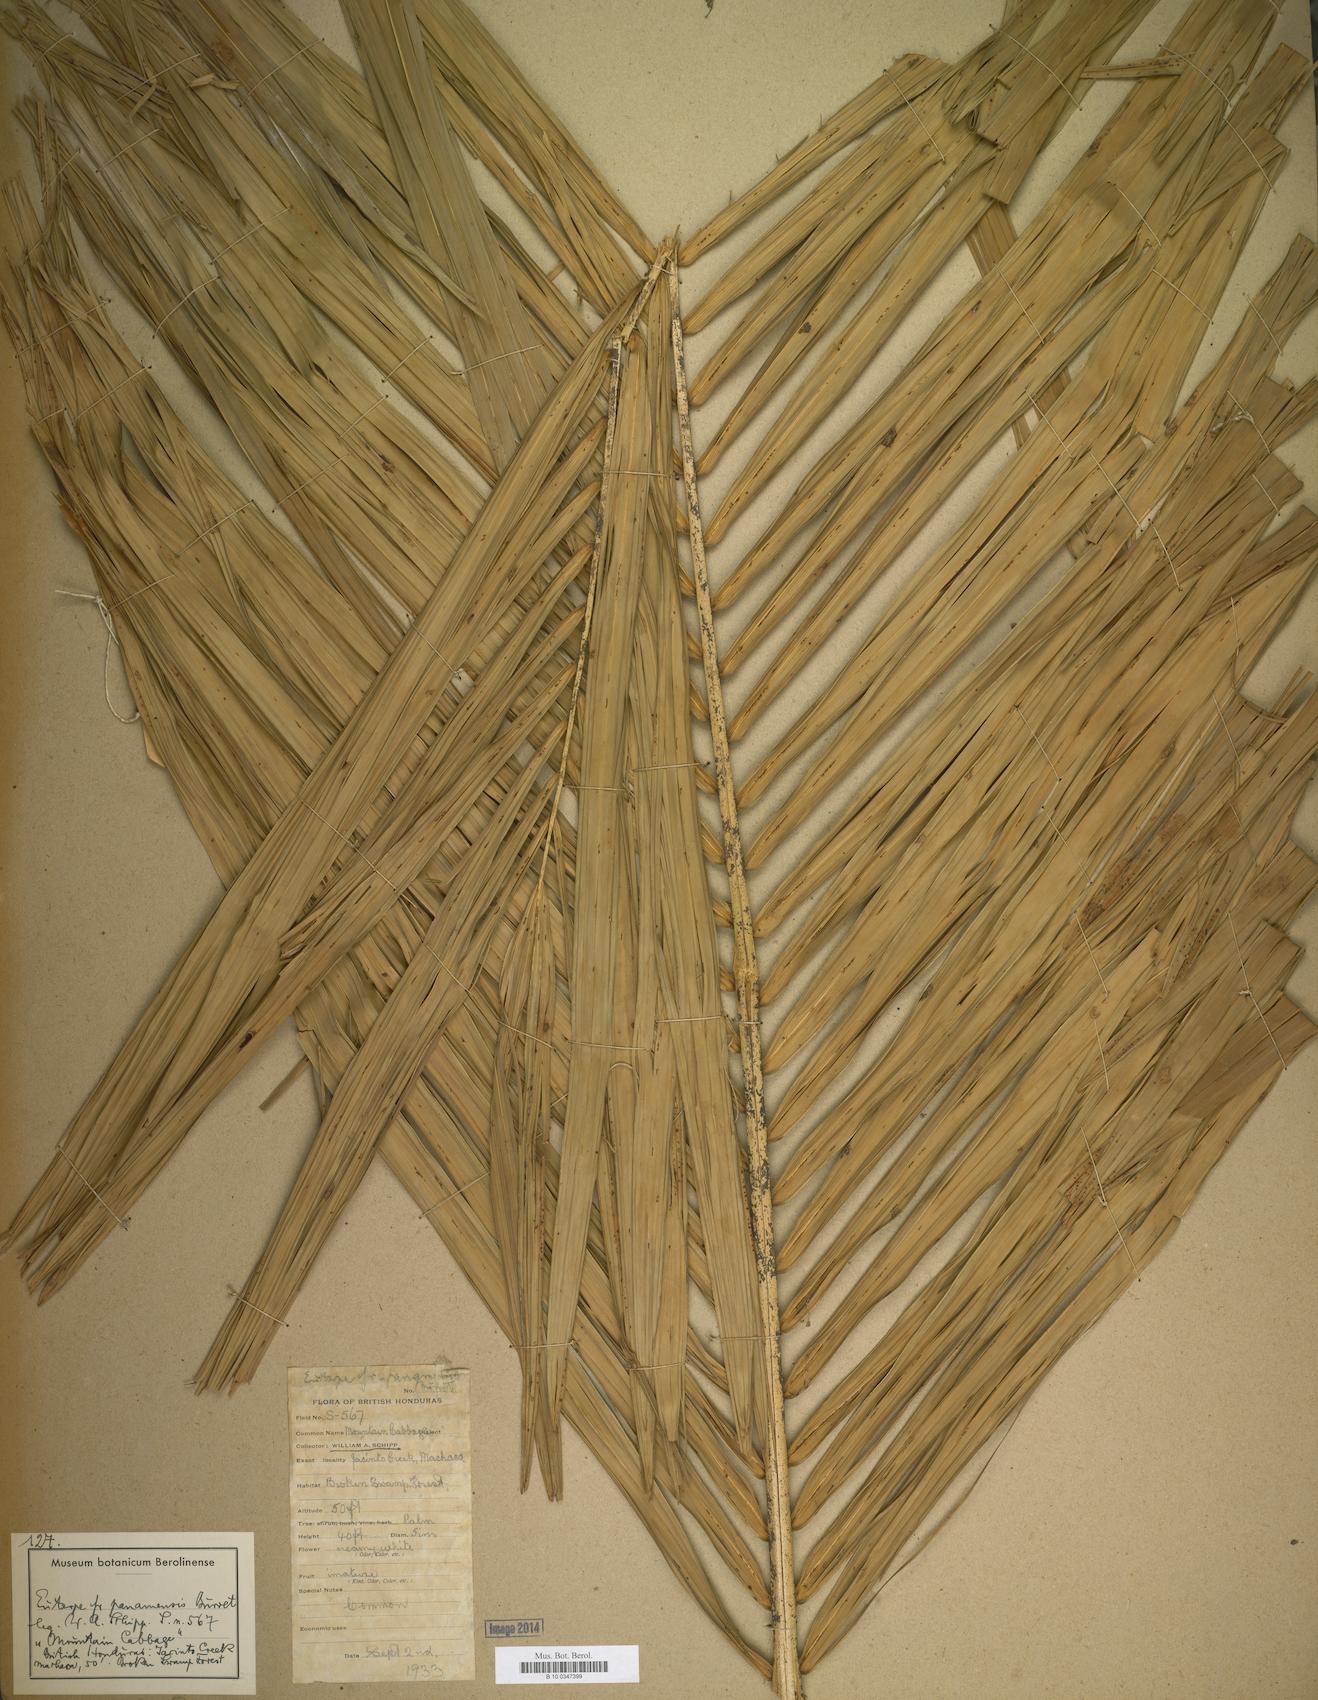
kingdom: Plantae
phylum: Tracheophyta
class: Liliopsida
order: Arecales
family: Arecaceae
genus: Euterpe
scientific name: Euterpe precatoria
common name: Mountain-cabbage
